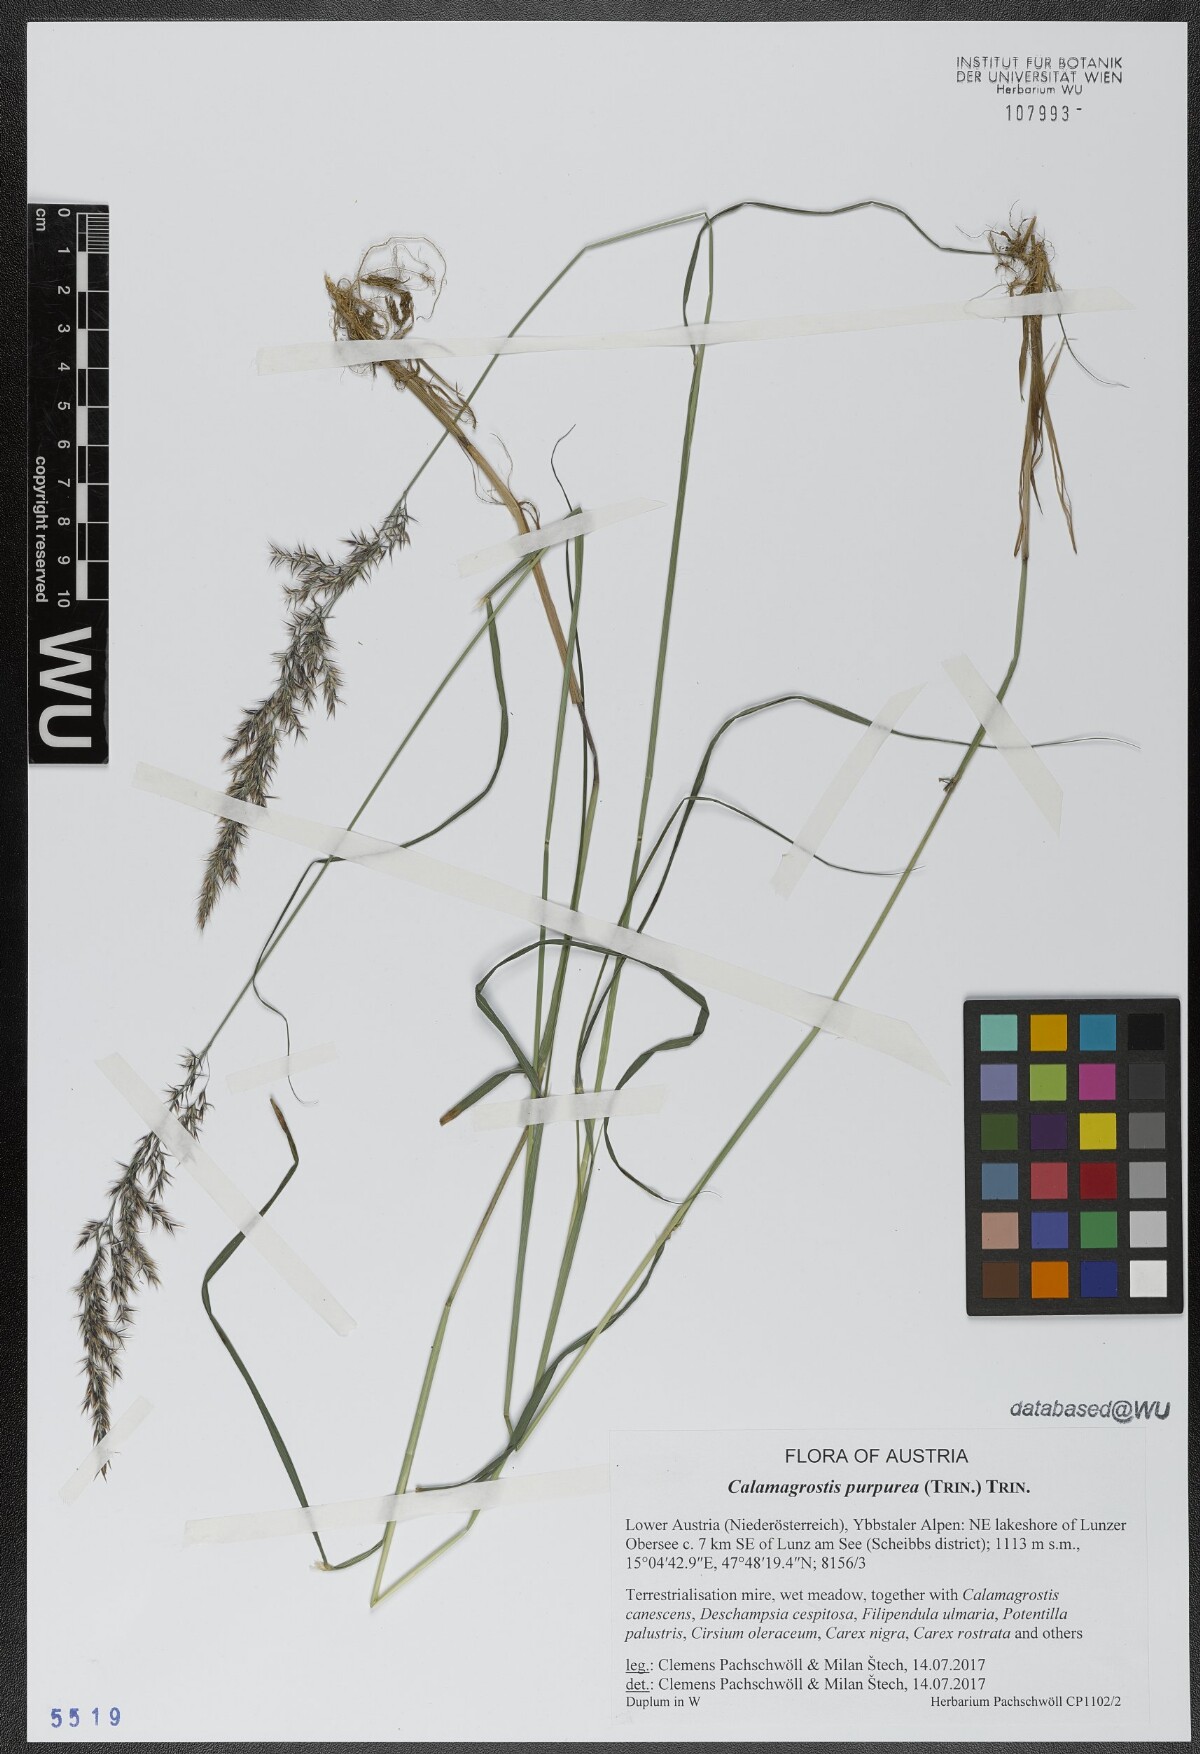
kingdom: Plantae
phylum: Tracheophyta
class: Liliopsida
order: Poales
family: Poaceae
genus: Calamagrostis
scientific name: Calamagrostis purpurea
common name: Scandinavian small-reed
